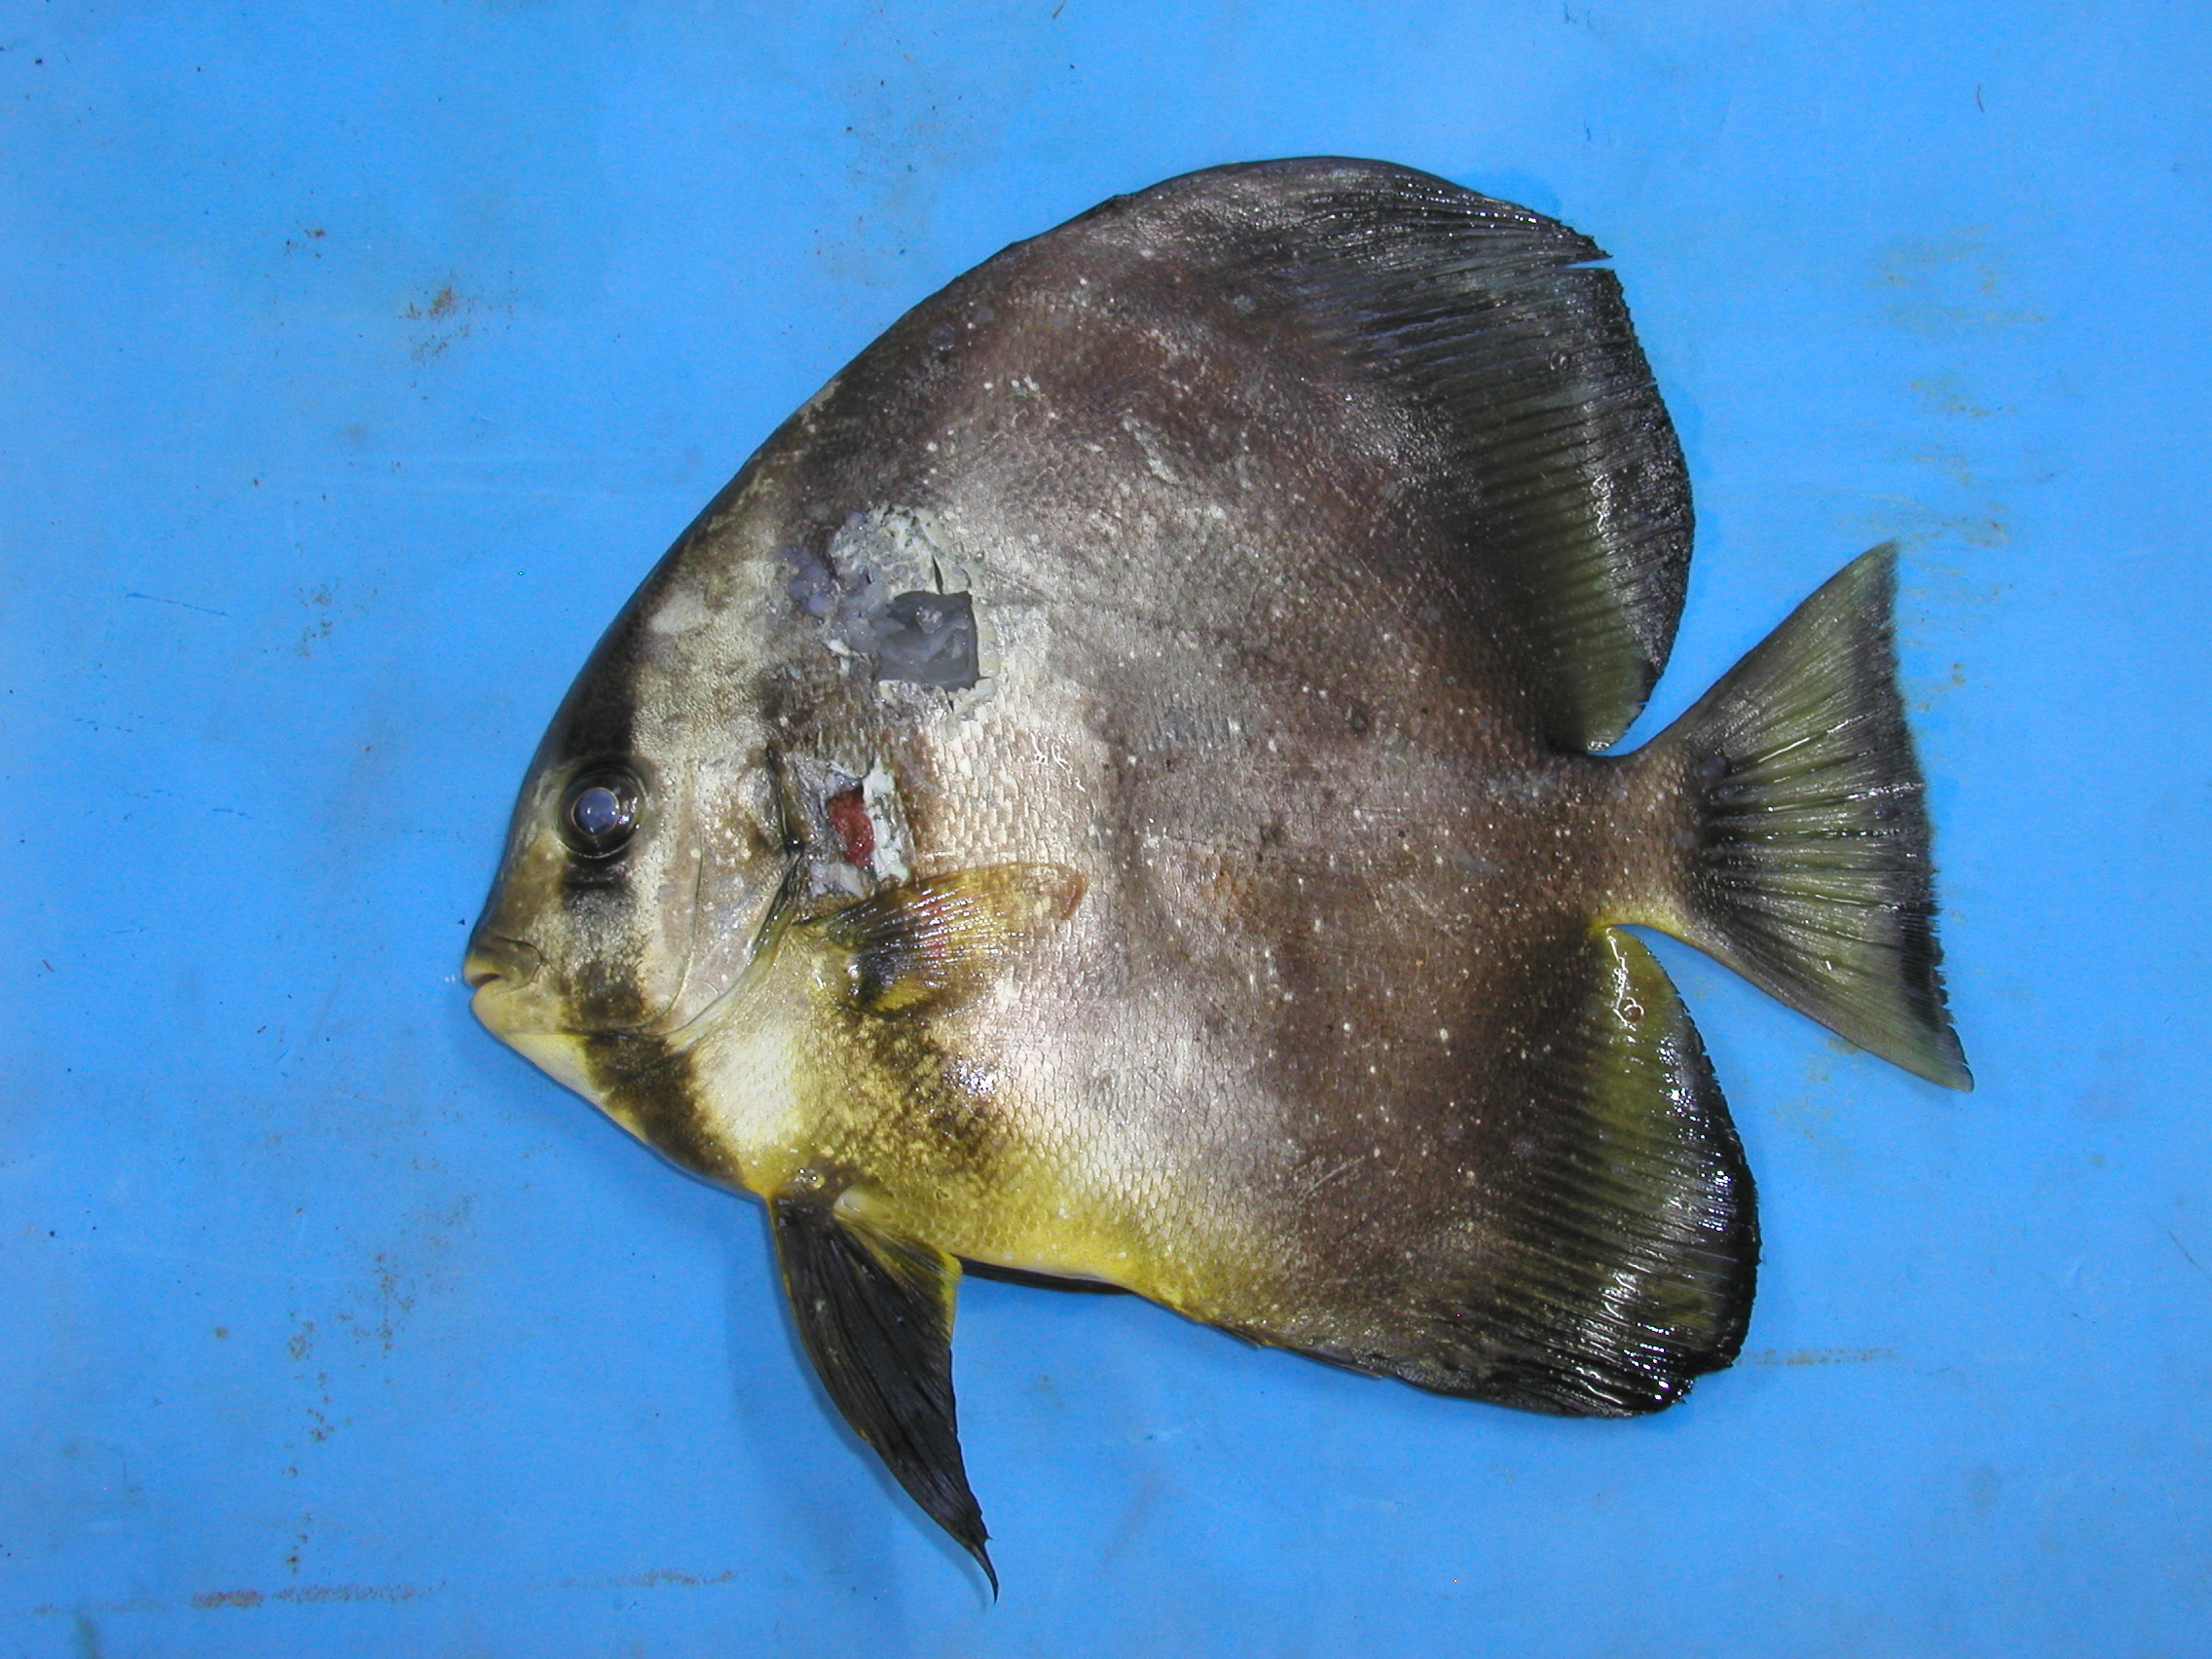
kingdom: Animalia
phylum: Chordata
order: Perciformes
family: Ephippidae
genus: Platax
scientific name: Platax orbicularis
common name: Batfish
